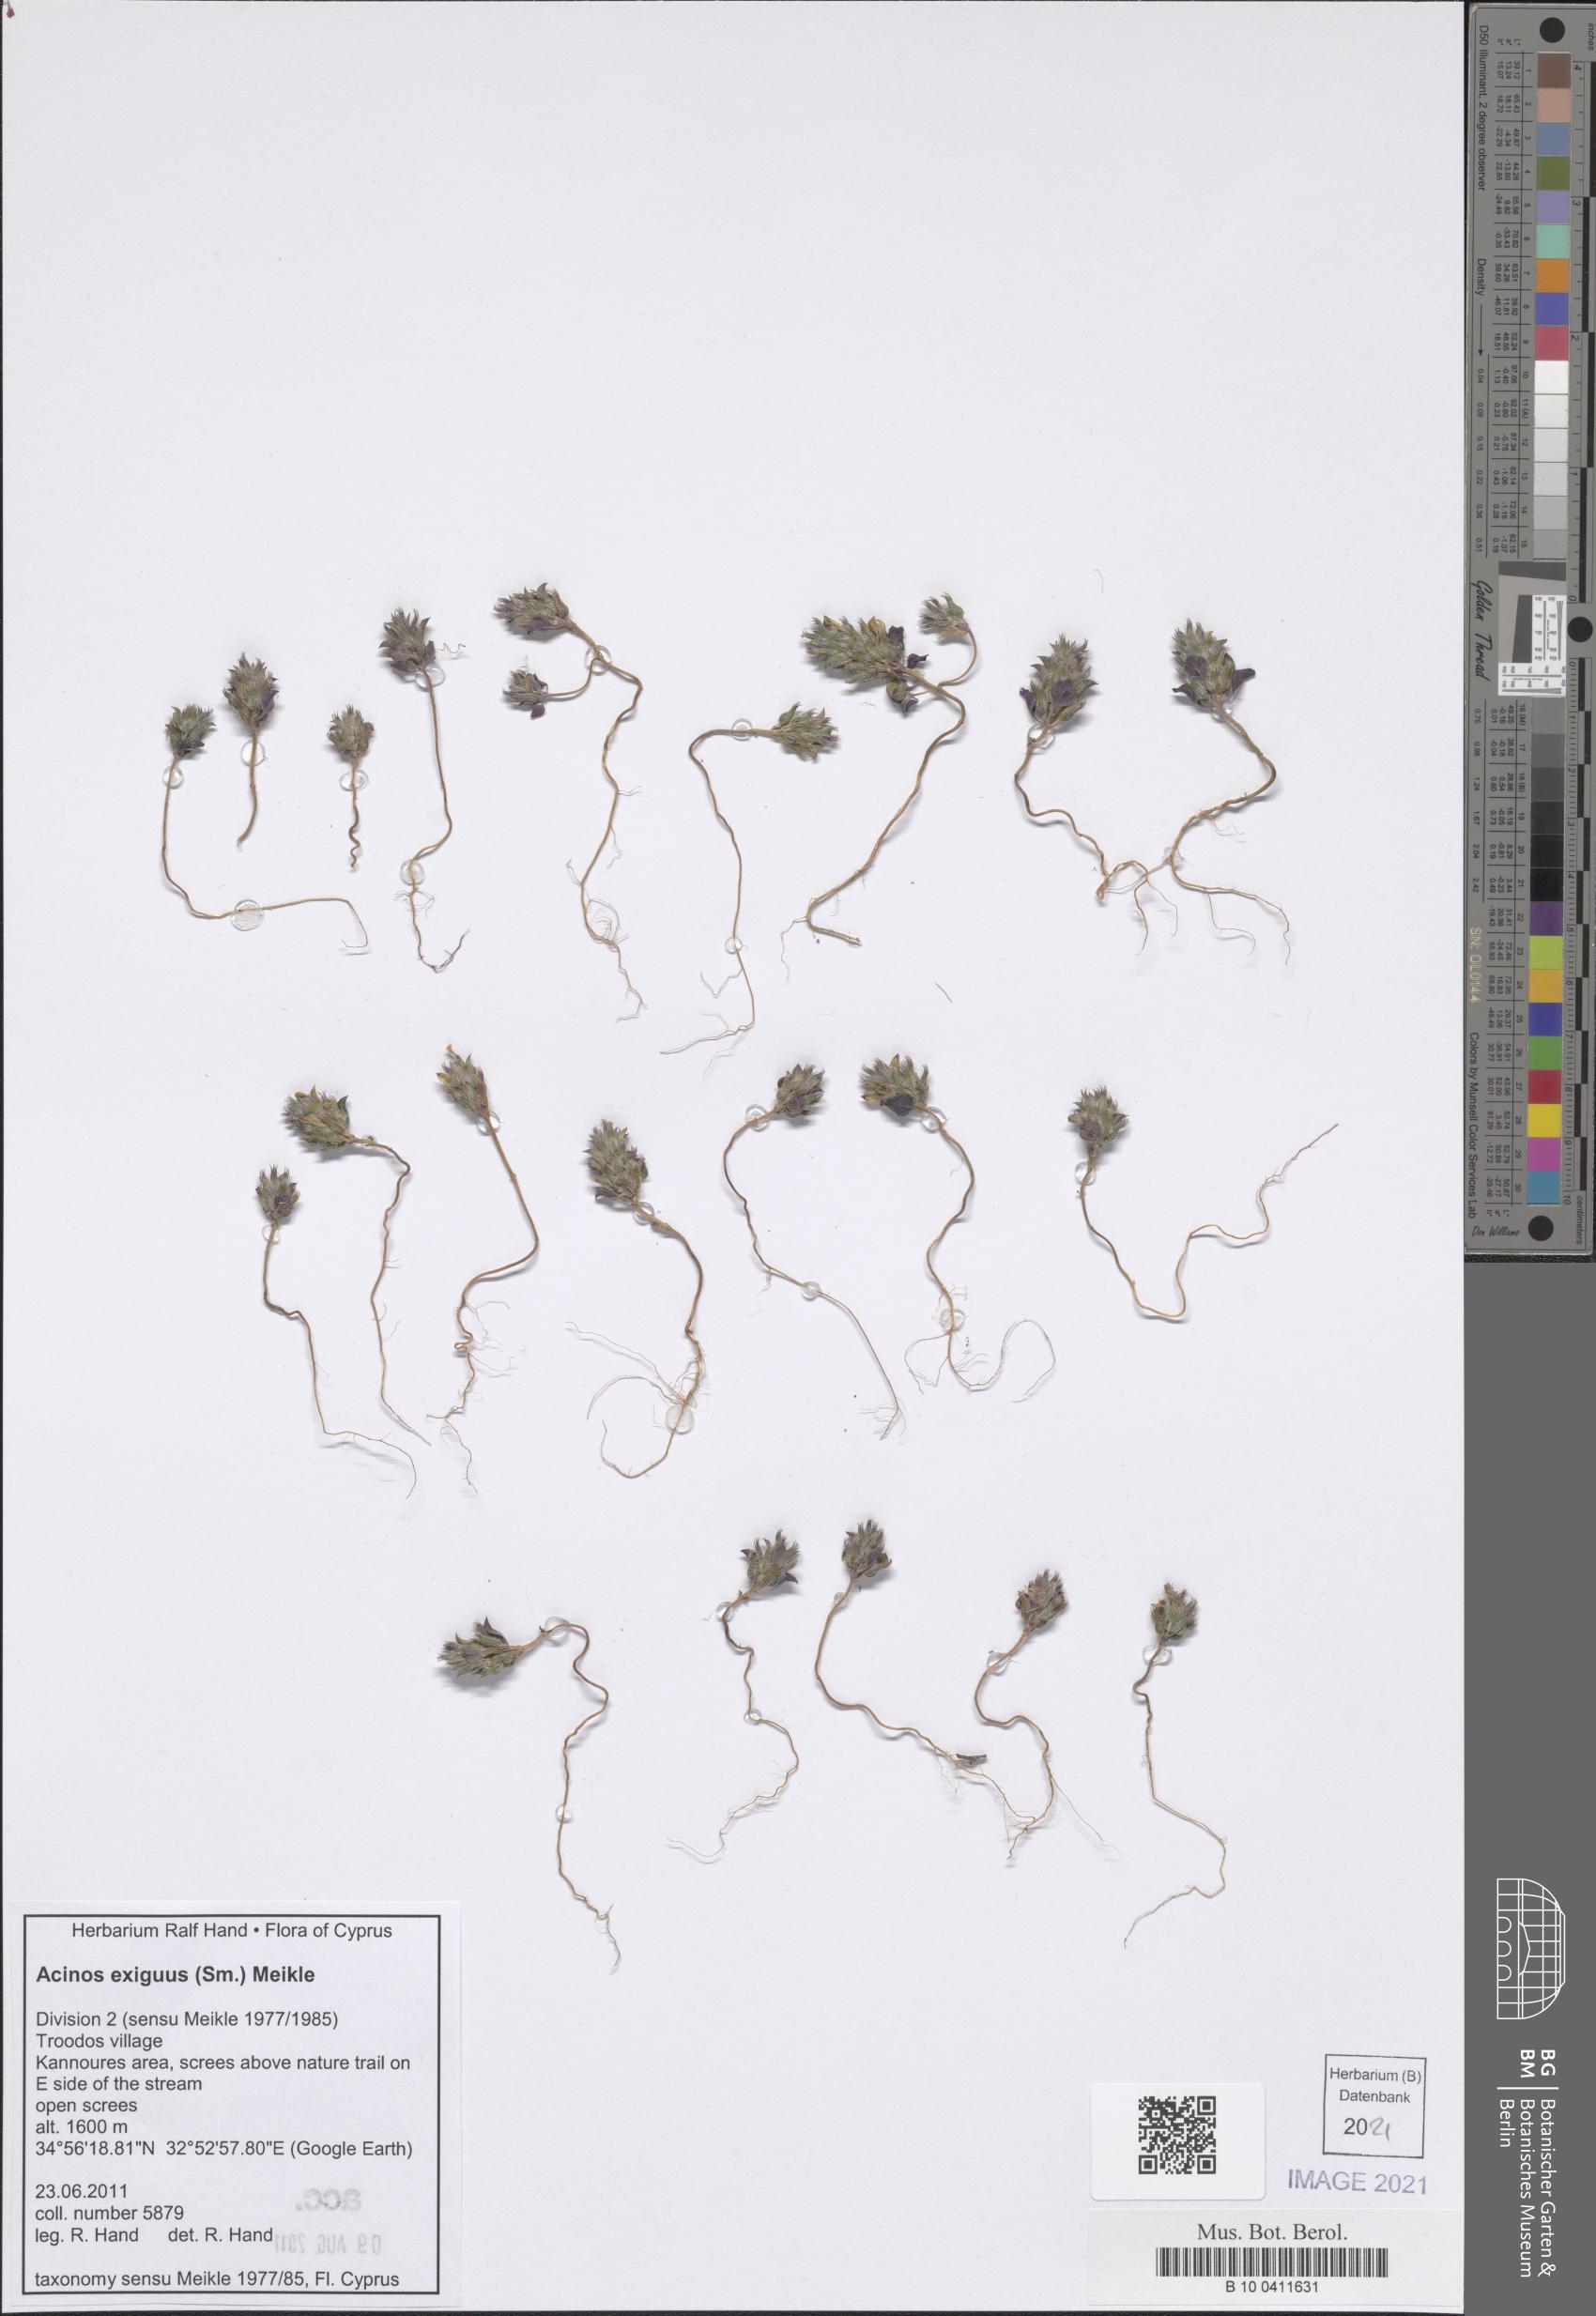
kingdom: Plantae
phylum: Tracheophyta
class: Magnoliopsida
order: Lamiales
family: Lamiaceae
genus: Clinopodium
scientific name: Clinopodium graveolens
